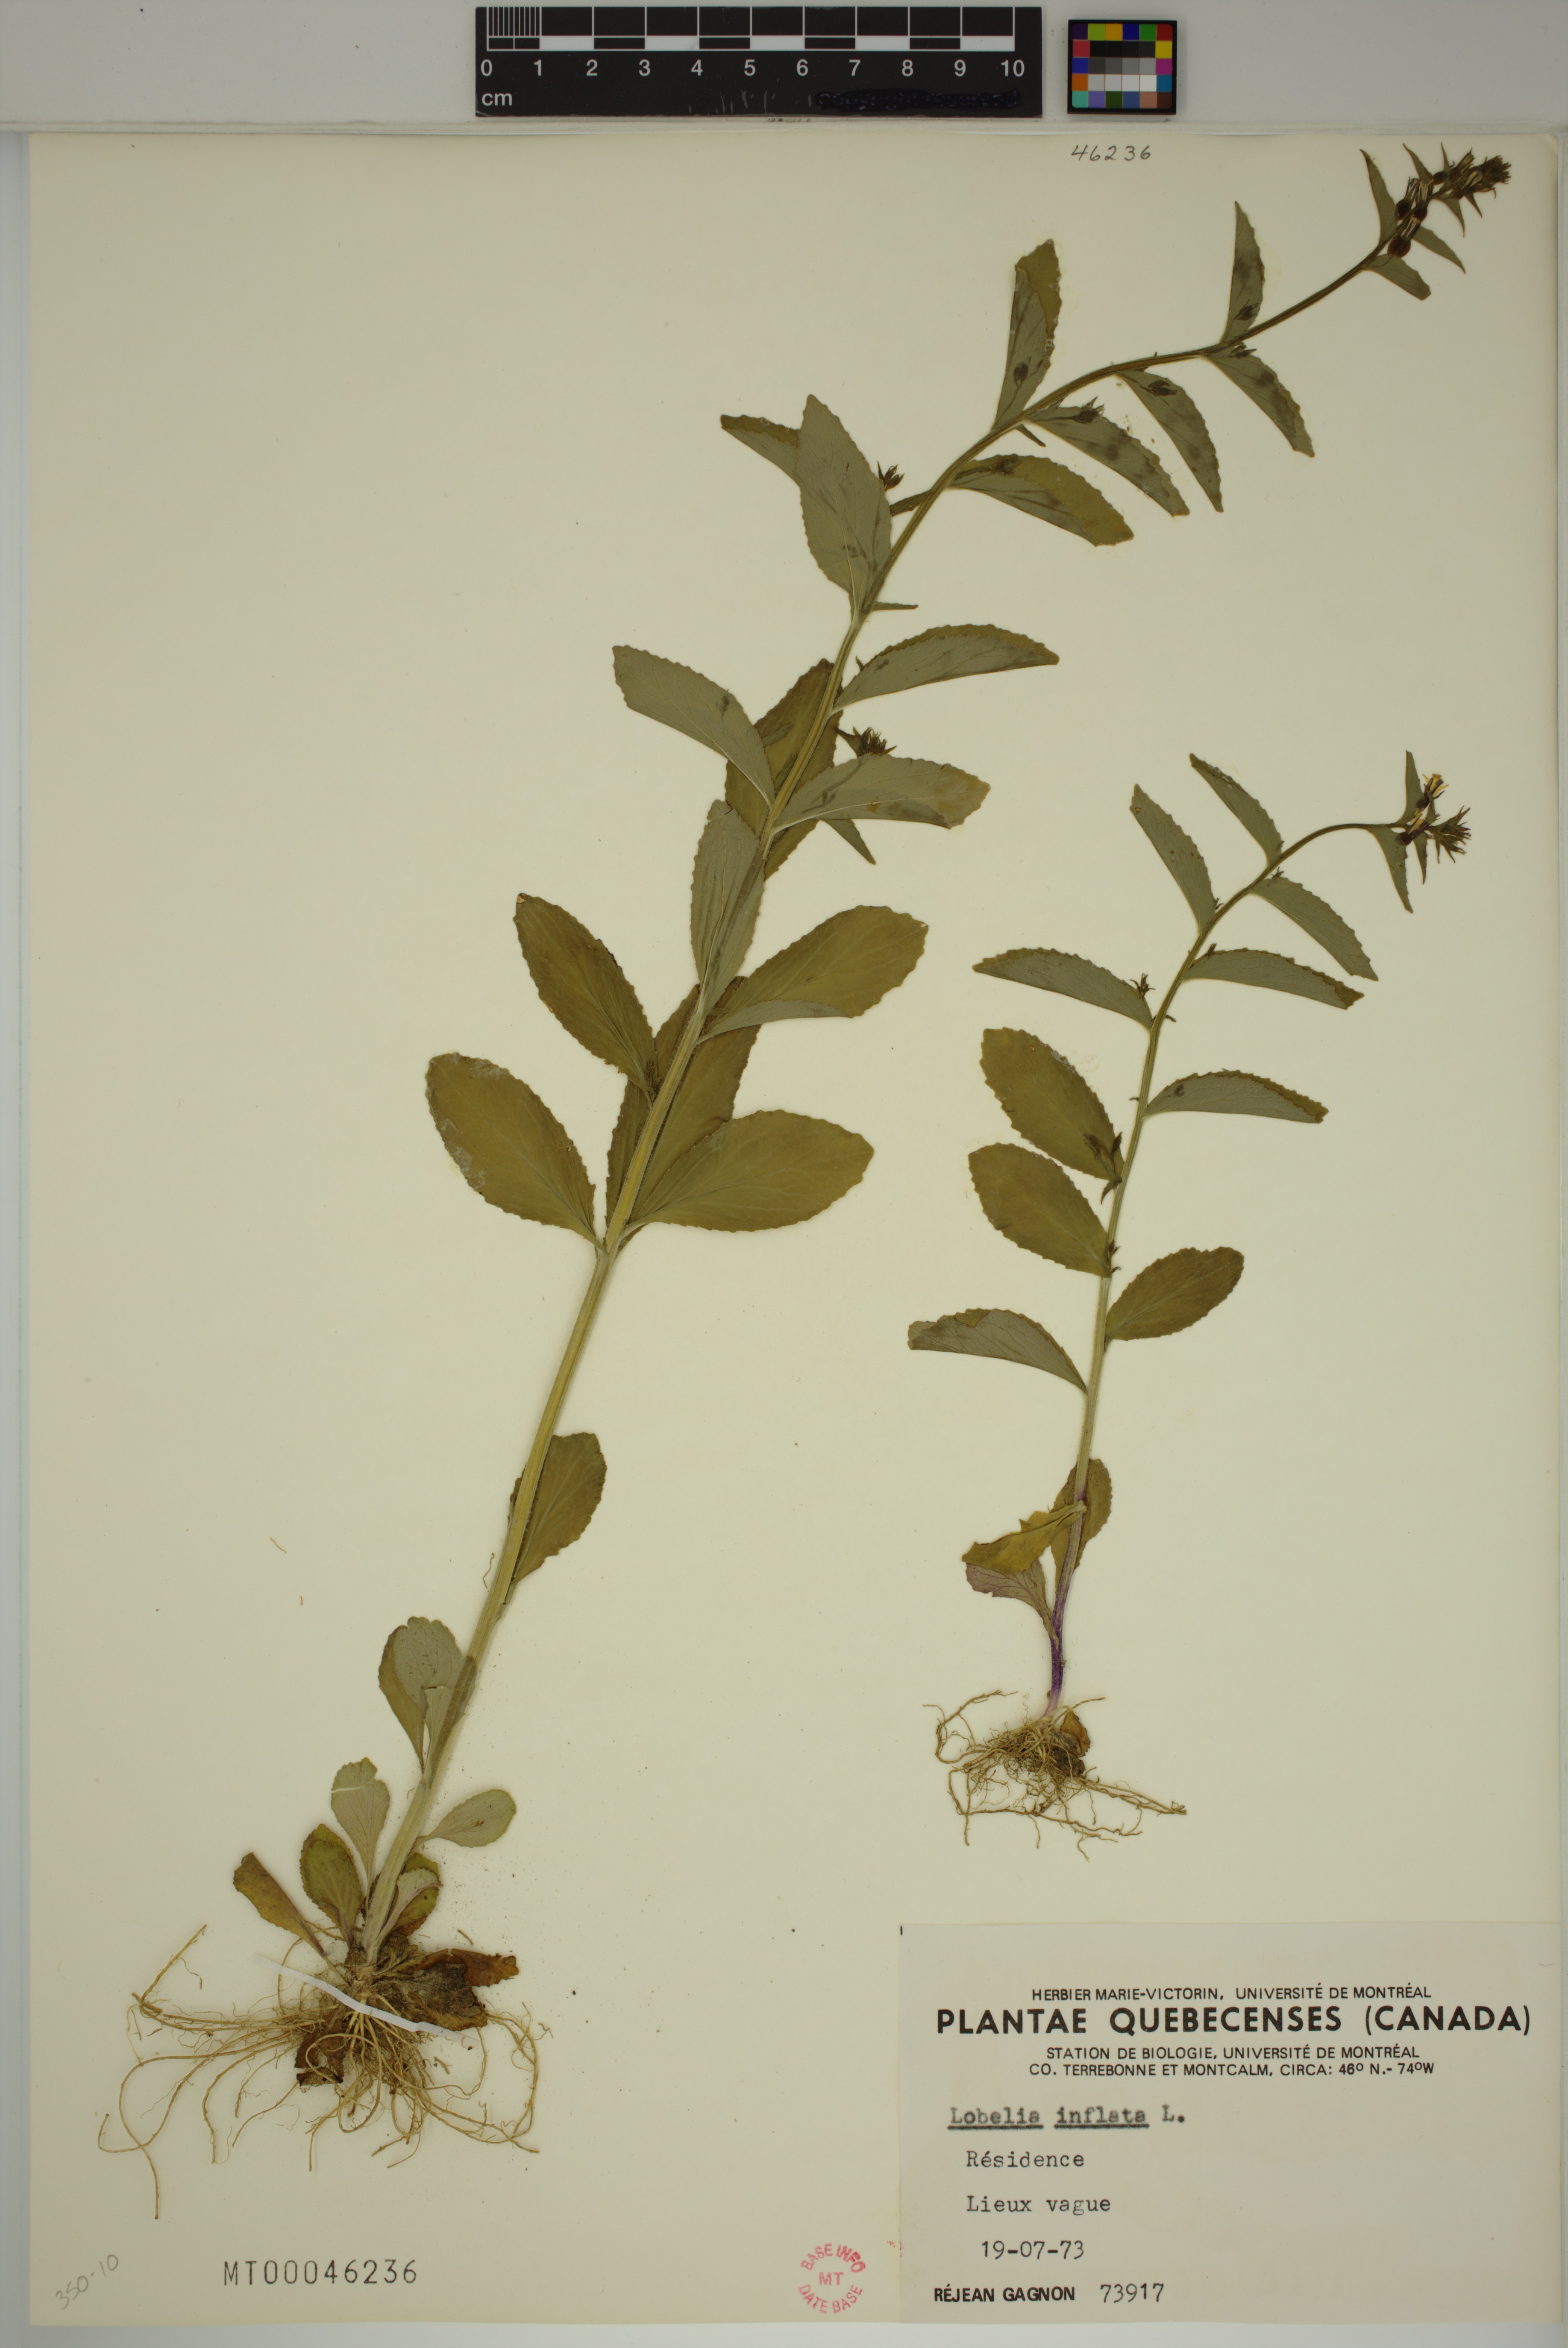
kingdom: Plantae
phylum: Tracheophyta
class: Magnoliopsida
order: Asterales
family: Campanulaceae
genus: Lobelia
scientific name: Lobelia inflata
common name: Indian tobacco
